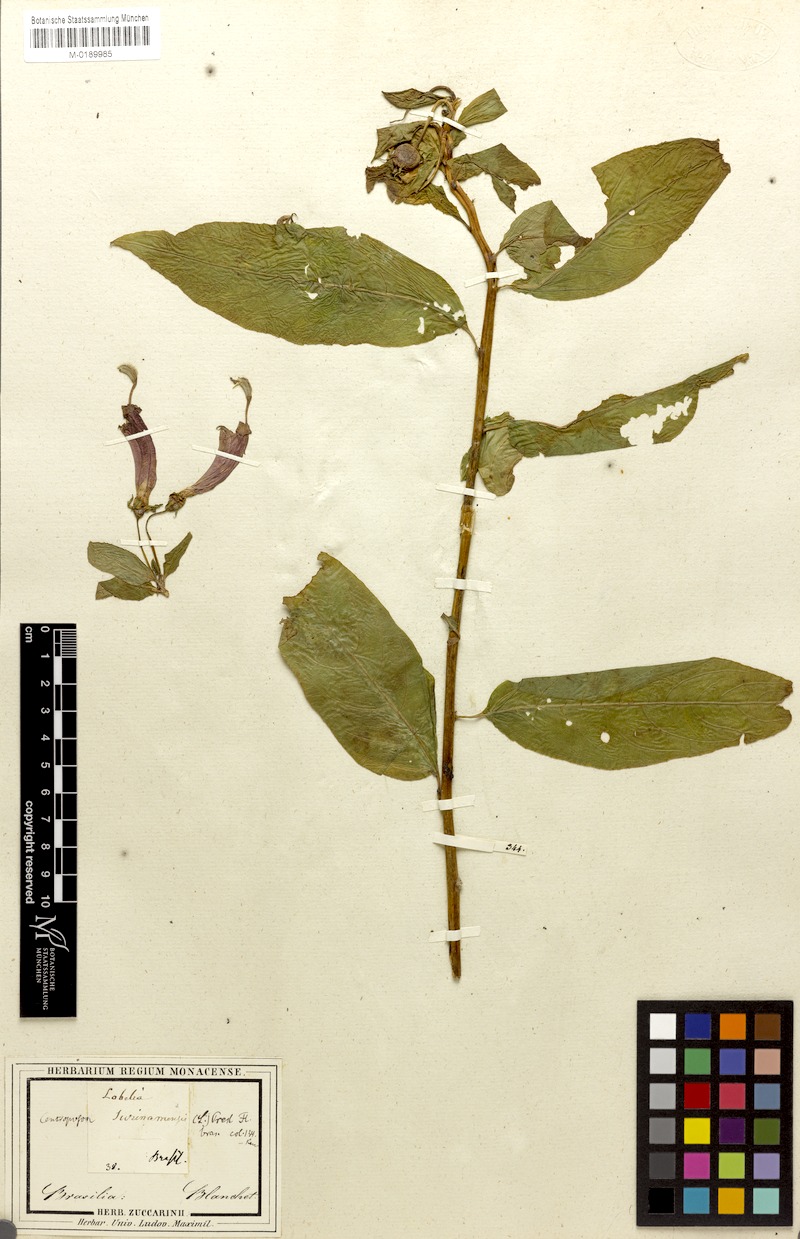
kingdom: Plantae
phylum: Tracheophyta
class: Magnoliopsida
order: Asterales
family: Campanulaceae
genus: Centropogon
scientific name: Centropogon cornutus
